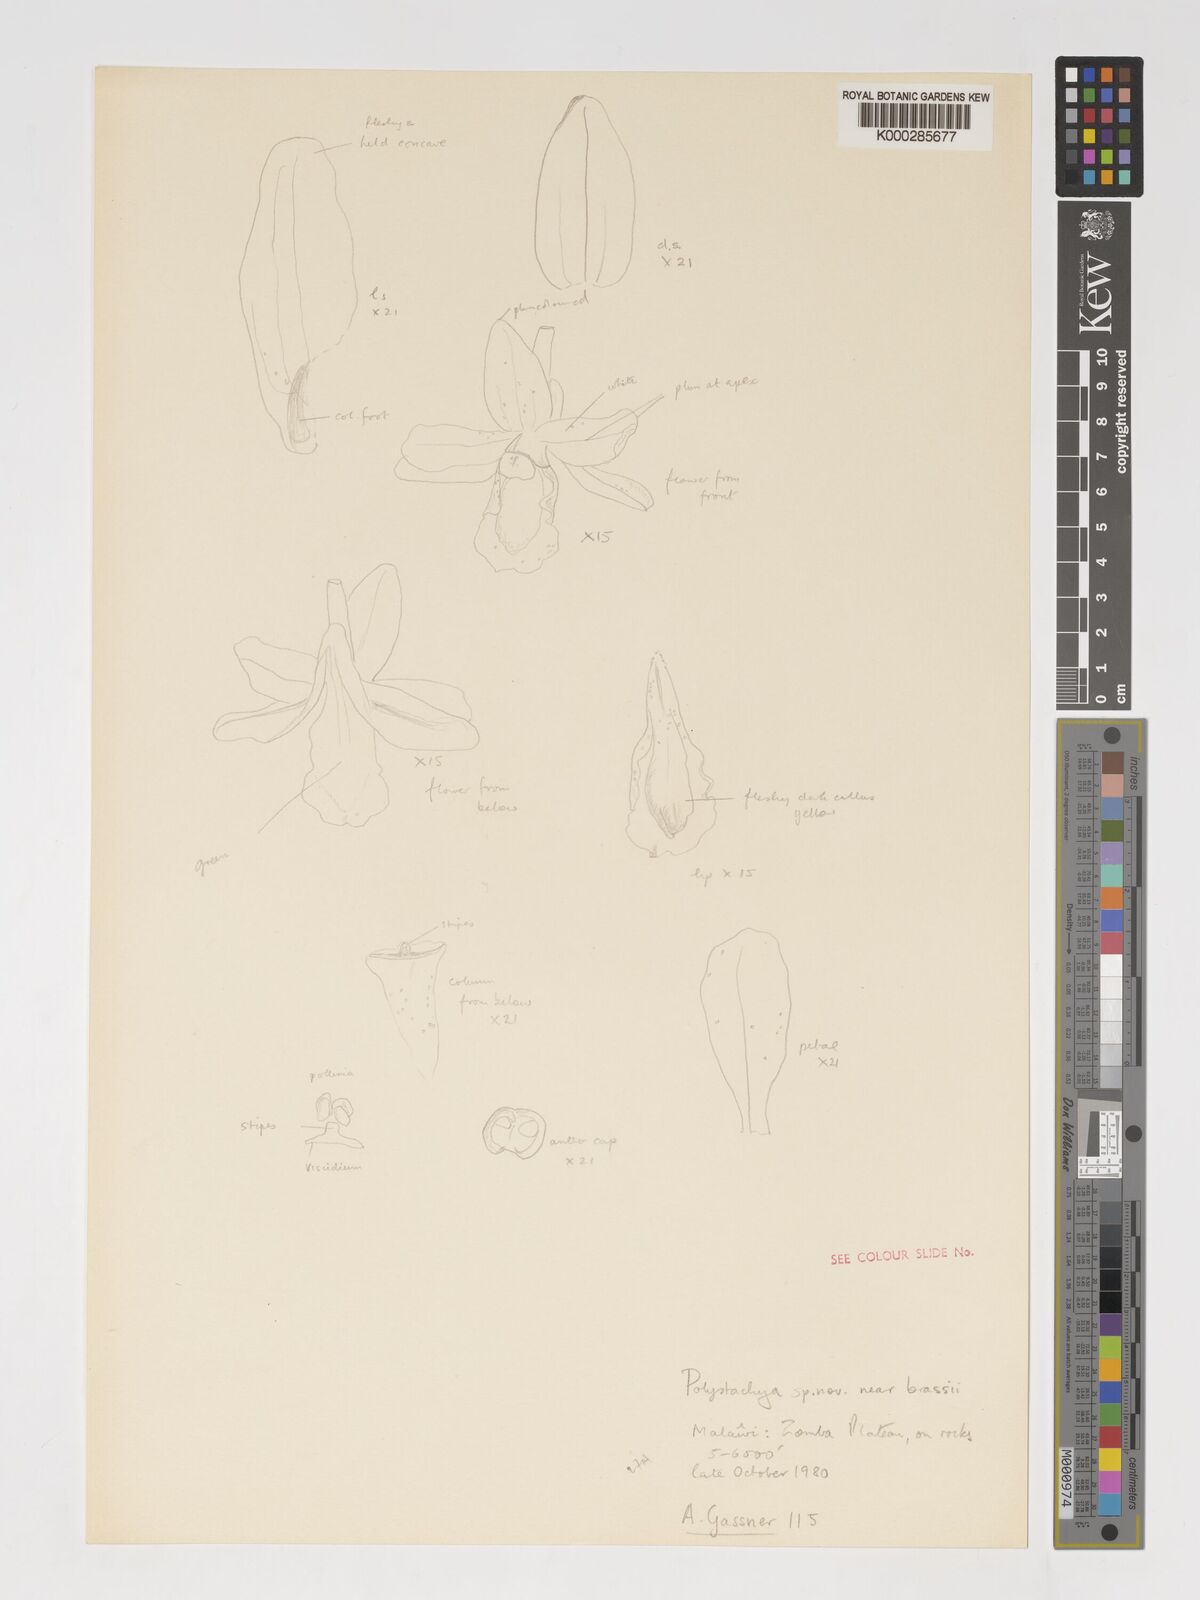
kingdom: Plantae
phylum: Tracheophyta
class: Liliopsida
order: Asparagales
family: Orchidaceae
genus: Polystachya
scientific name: Polystachya songaniensis
